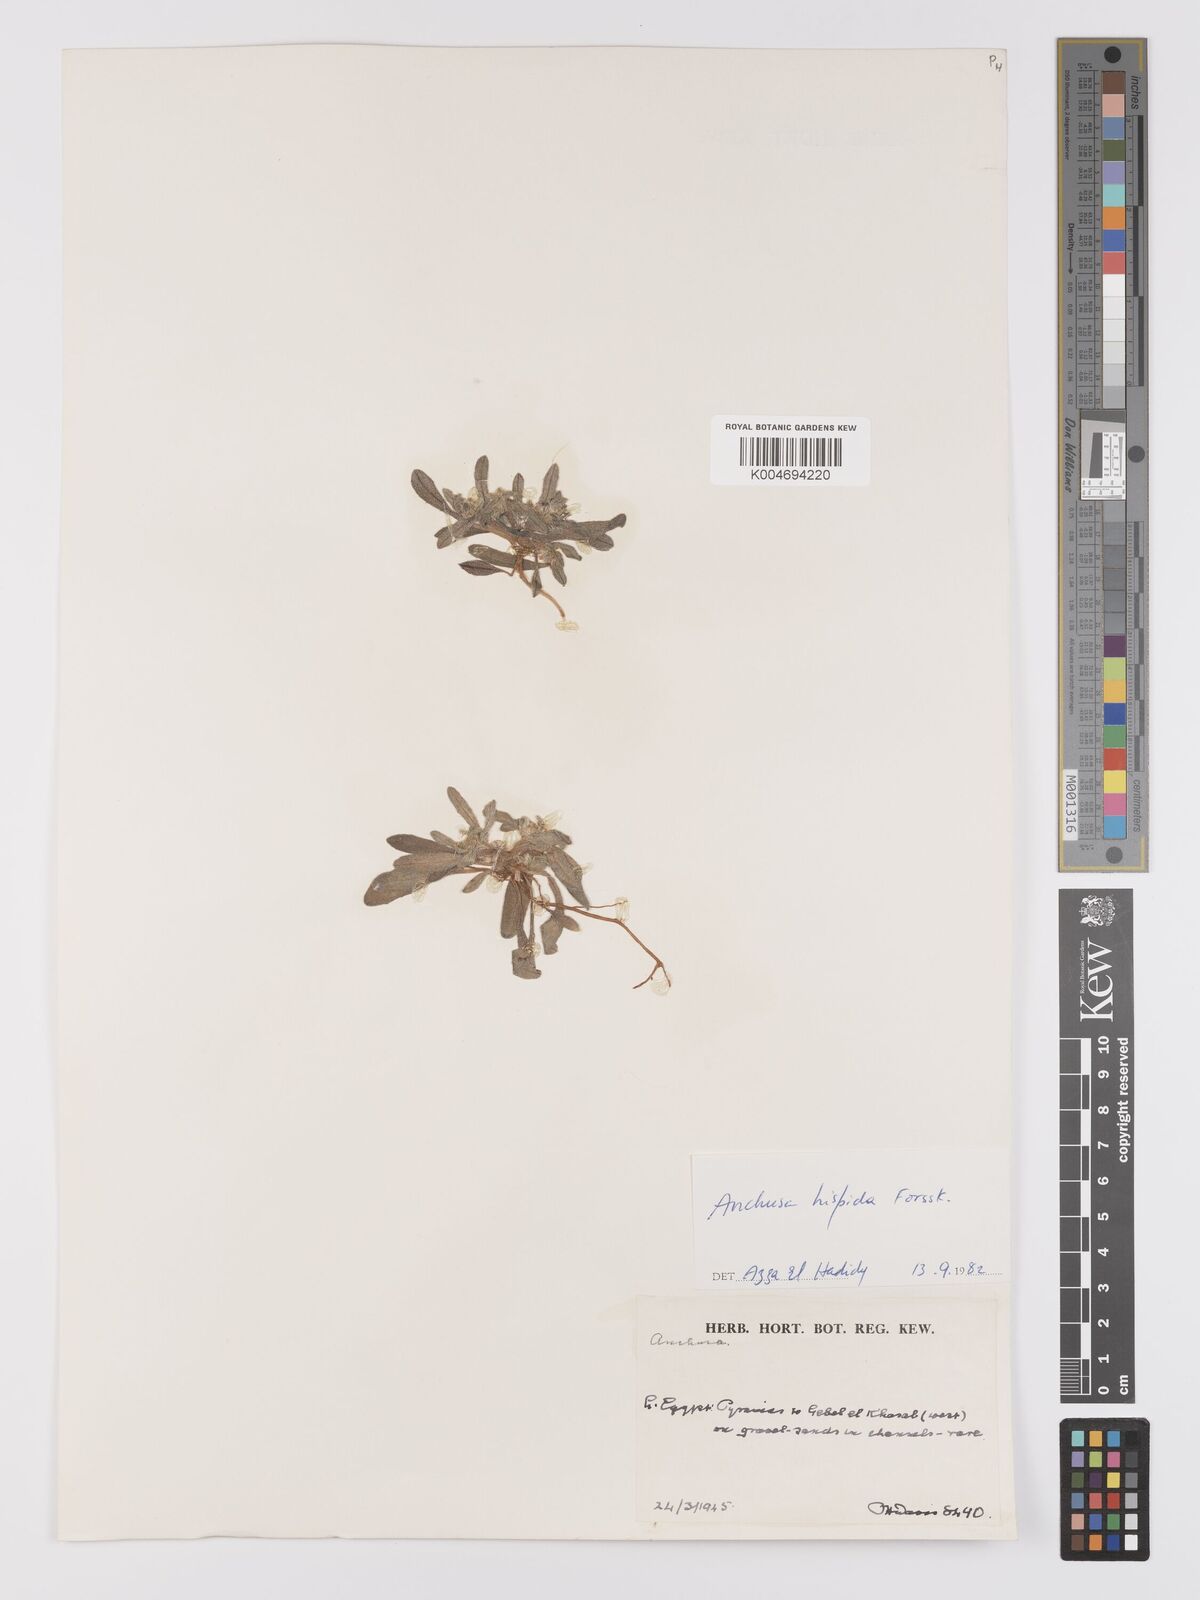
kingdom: Plantae
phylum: Tracheophyta
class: Magnoliopsida
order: Boraginales
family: Boraginaceae
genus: Gastrocotyle
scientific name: Gastrocotyle hispida
